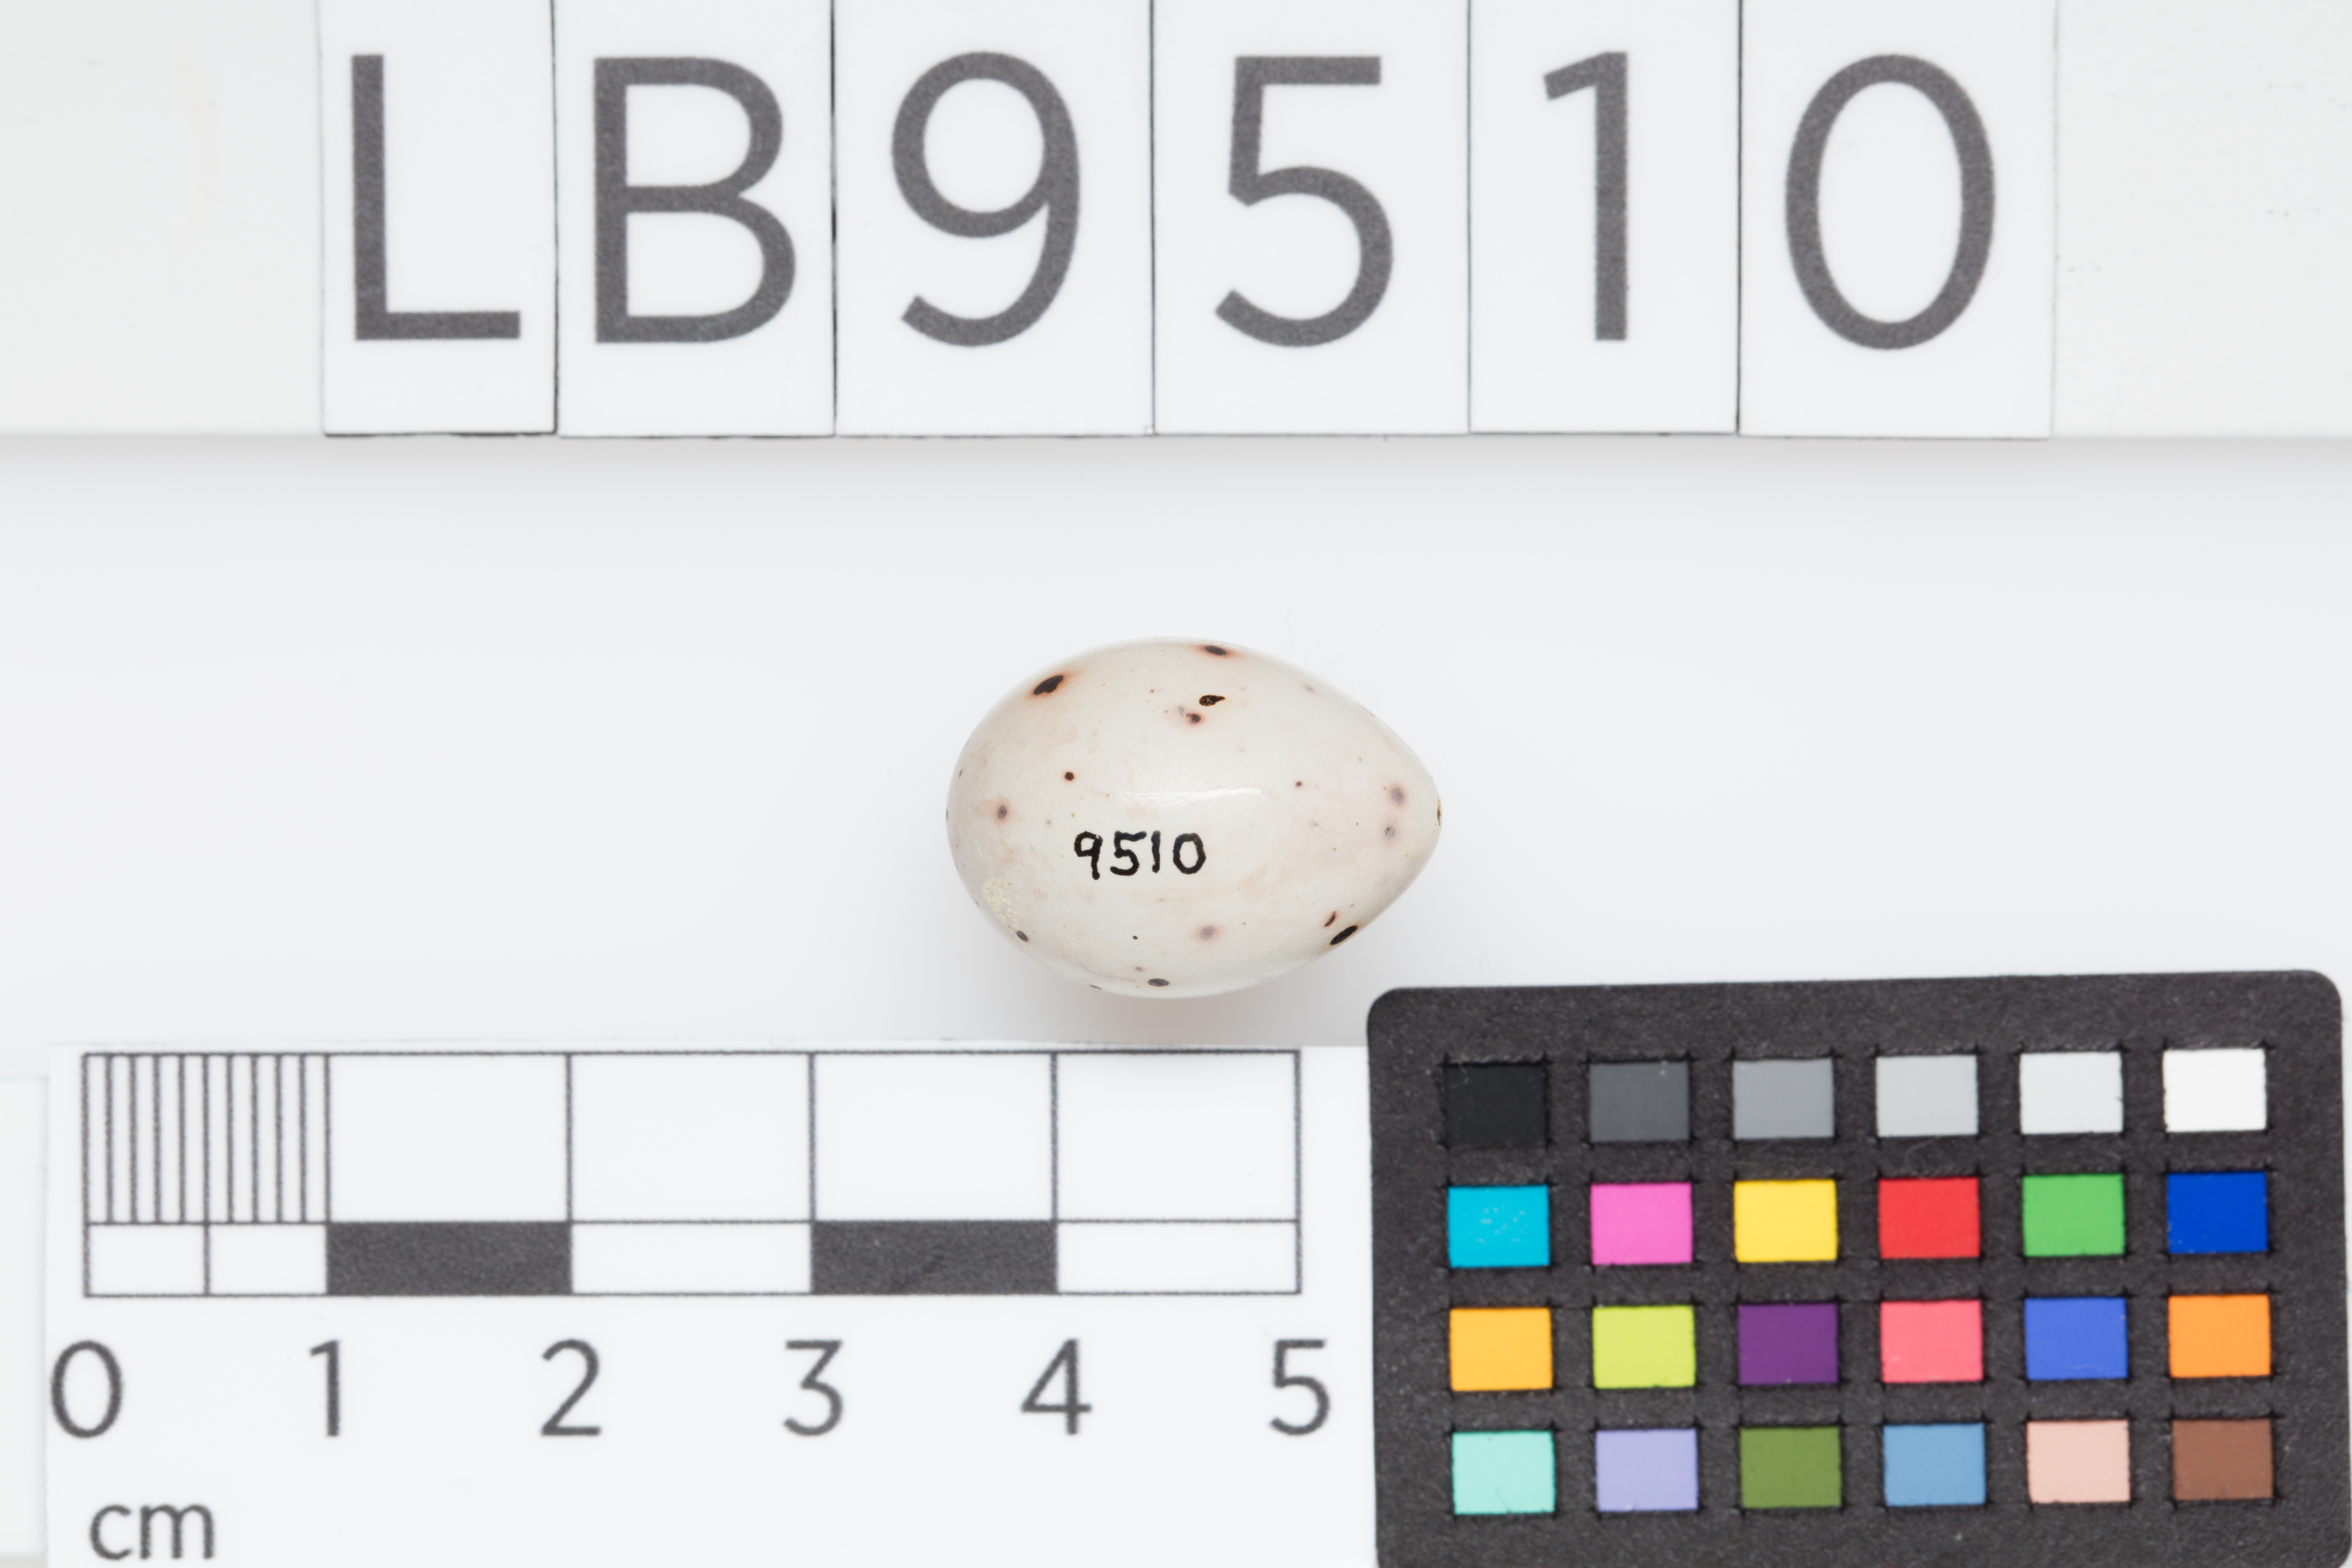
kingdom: Animalia
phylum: Chordata
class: Aves
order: Passeriformes
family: Fringillidae
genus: Fringilla
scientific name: Fringilla coelebs
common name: Common chaffinch
